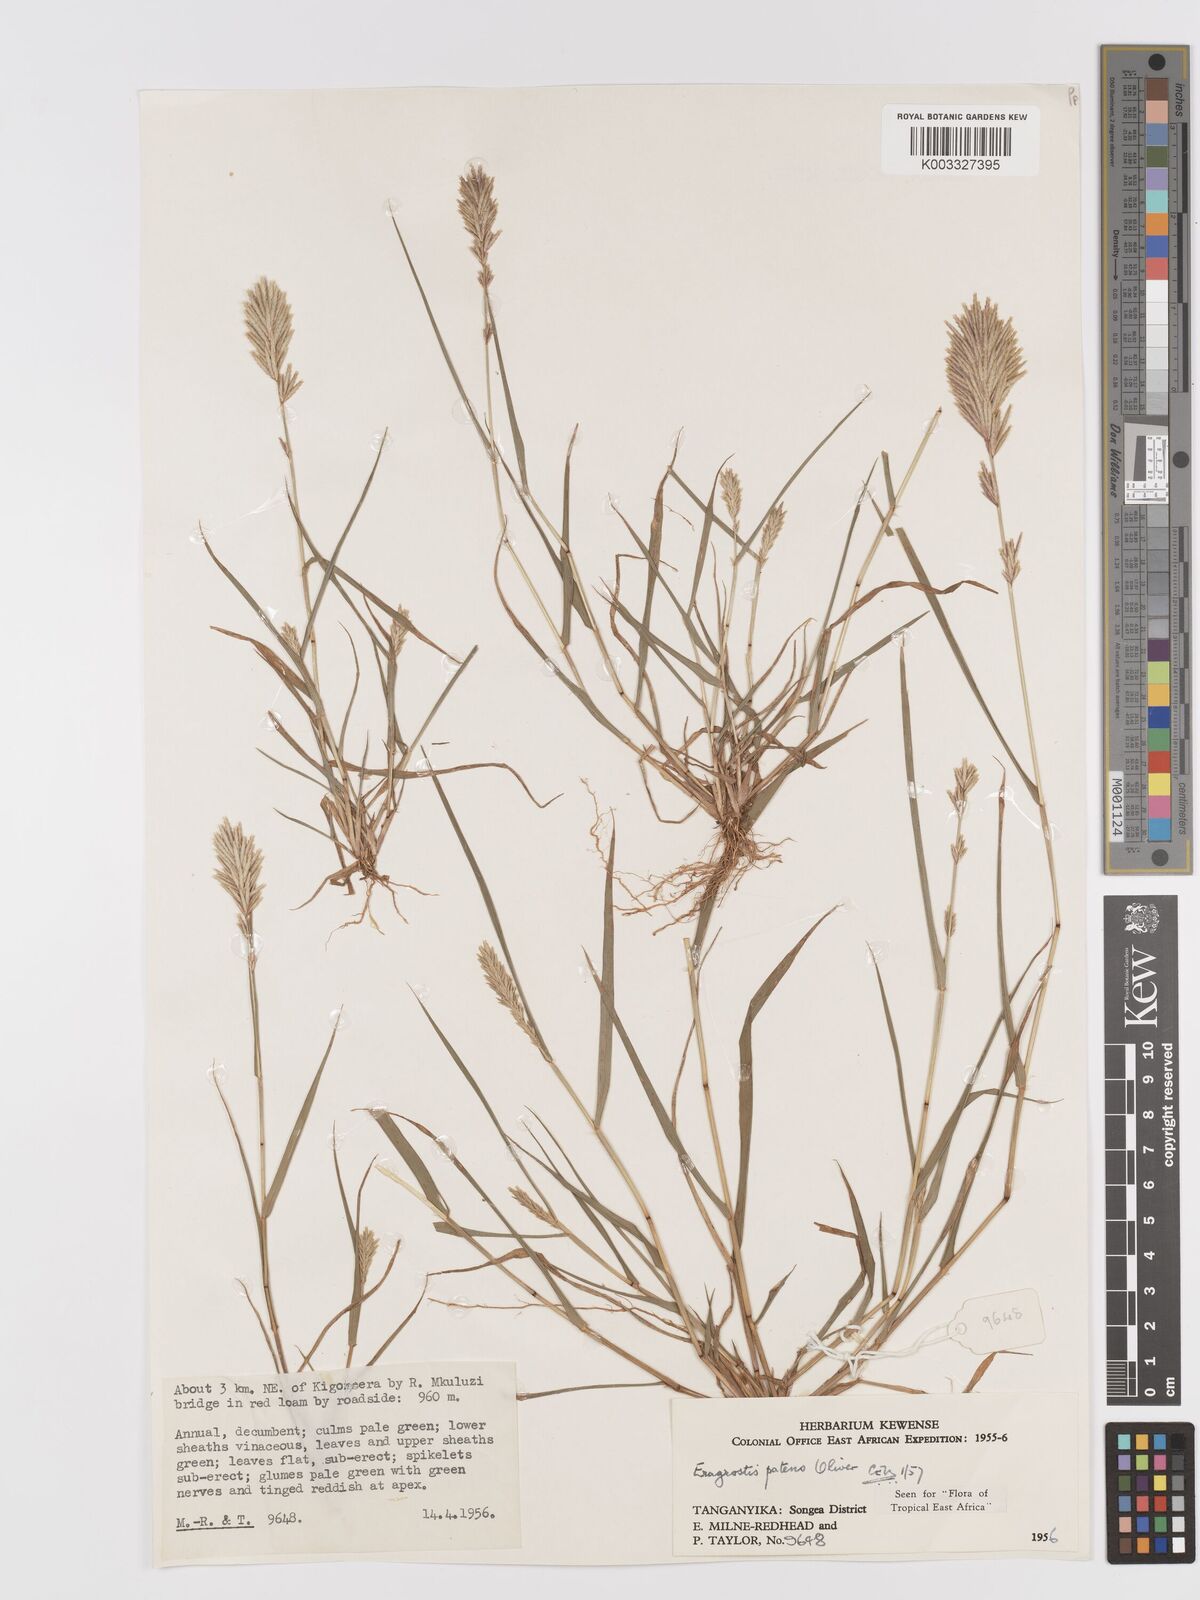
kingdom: Plantae
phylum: Tracheophyta
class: Liliopsida
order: Poales
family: Poaceae
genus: Eragrostis
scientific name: Eragrostis patens
